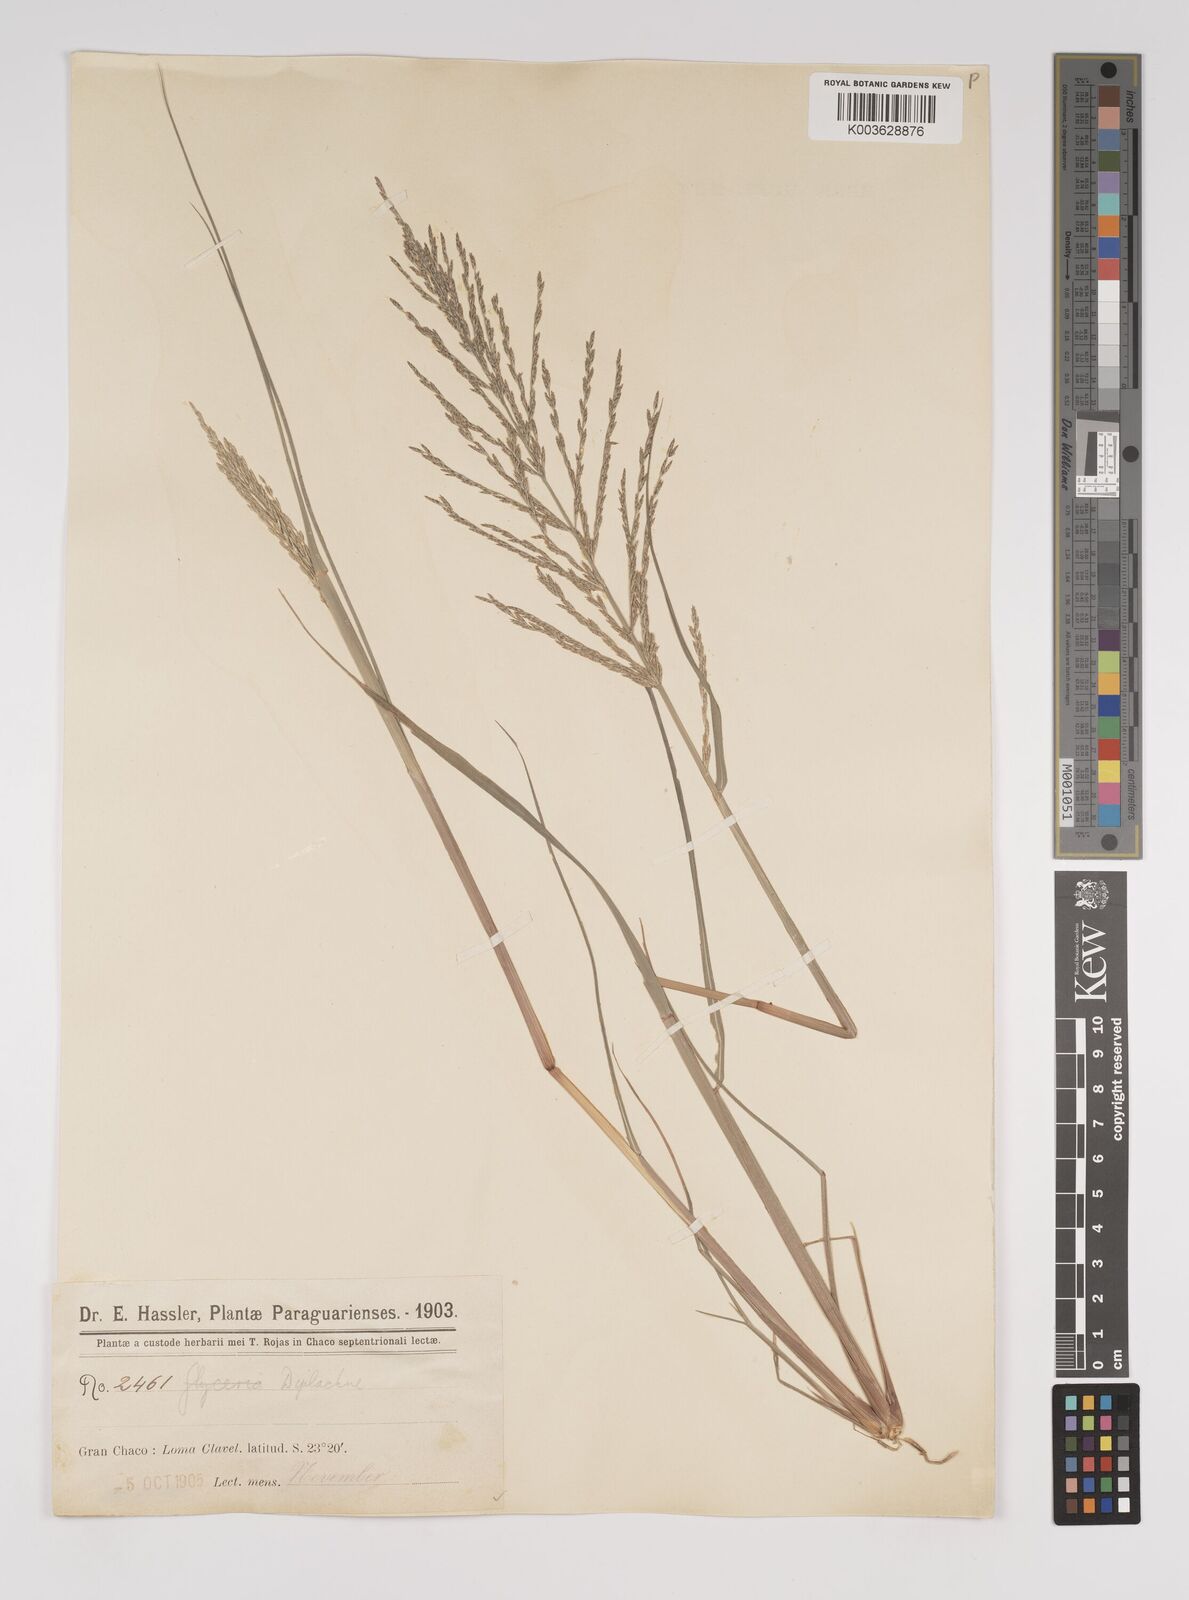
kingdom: Plantae
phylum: Tracheophyta
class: Liliopsida
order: Poales
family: Poaceae
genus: Diplachne
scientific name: Diplachne fusca
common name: Brown beetle grass
